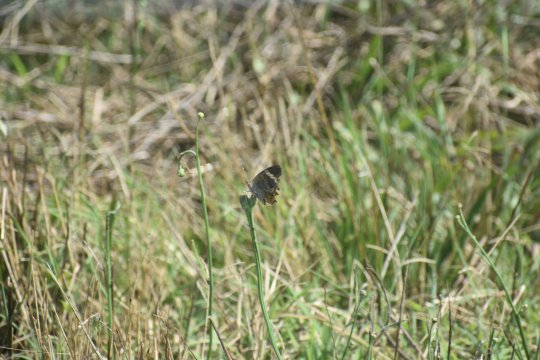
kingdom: Animalia
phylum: Arthropoda
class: Insecta
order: Lepidoptera
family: Nymphalidae
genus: Junonia
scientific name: Junonia coenia
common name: Common Buckeye
